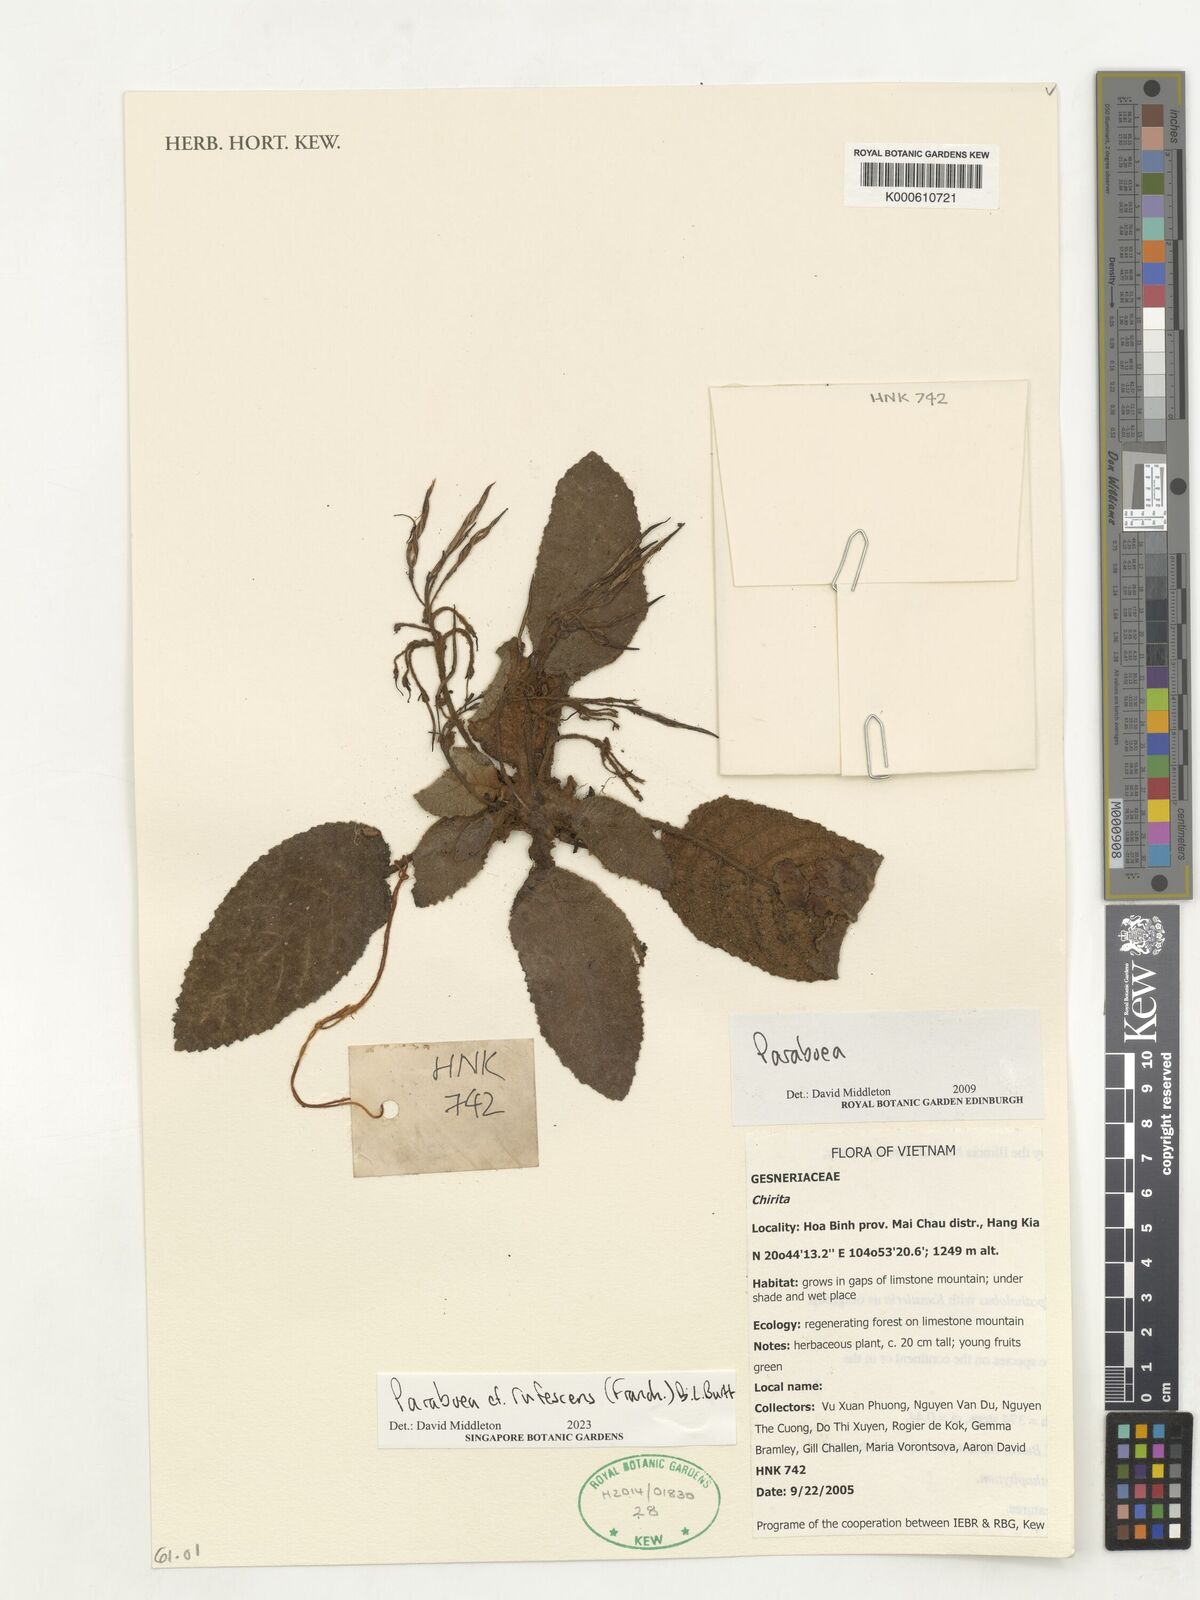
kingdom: Plantae
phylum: Tracheophyta
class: Magnoliopsida
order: Lamiales
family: Gesneriaceae
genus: Paraboea
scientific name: Paraboea rufescens
